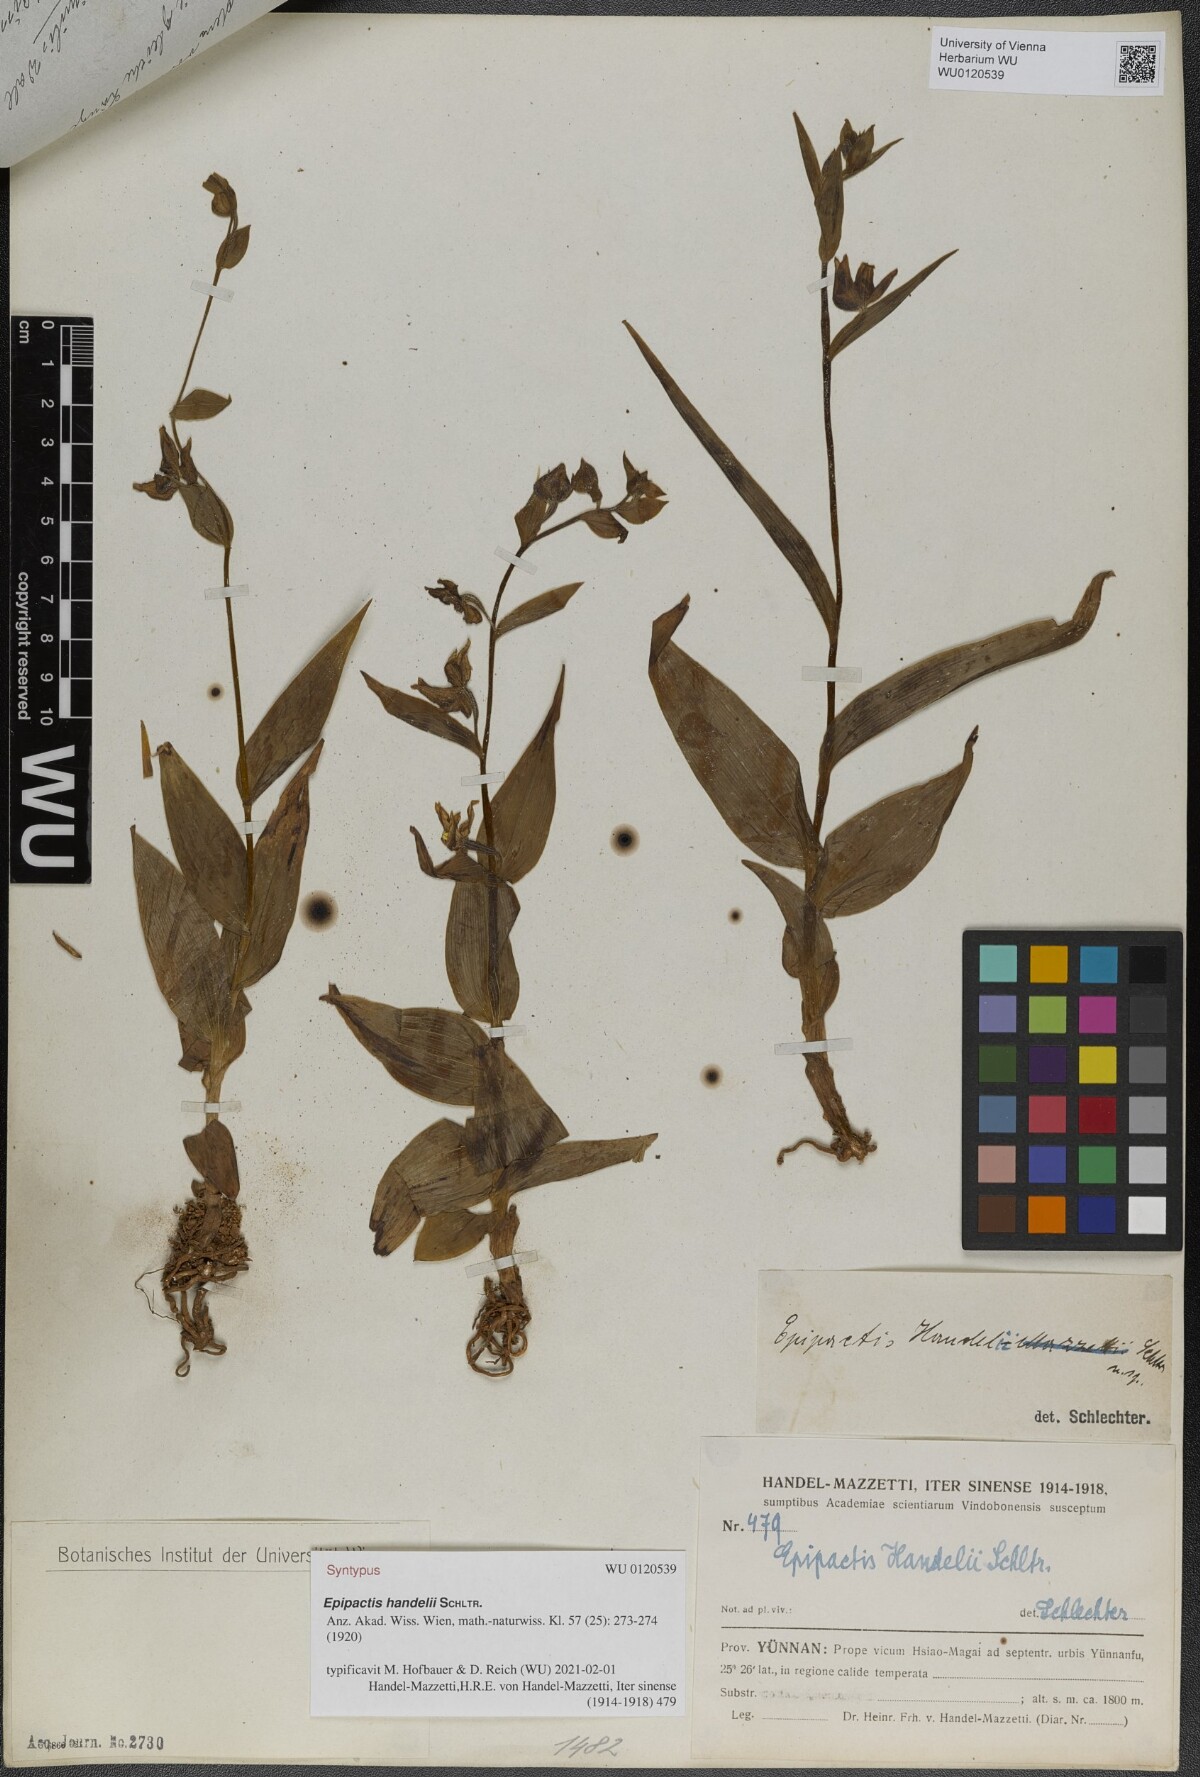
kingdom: Plantae
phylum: Tracheophyta
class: Liliopsida
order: Asparagales
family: Orchidaceae
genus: Epipactis
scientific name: Epipactis veratrifolia
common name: Eastern marsh helleborine
